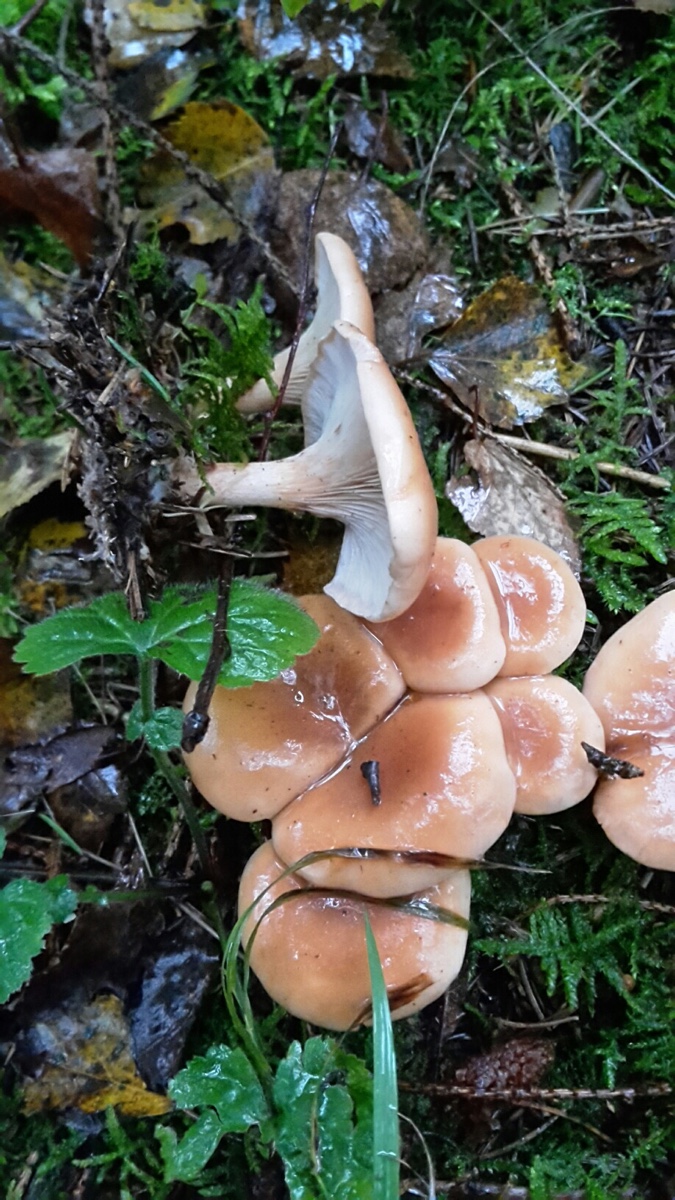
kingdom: Fungi
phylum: Basidiomycota
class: Agaricomycetes
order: Agaricales
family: Tricholomataceae
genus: Paralepista
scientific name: Paralepista flaccida
